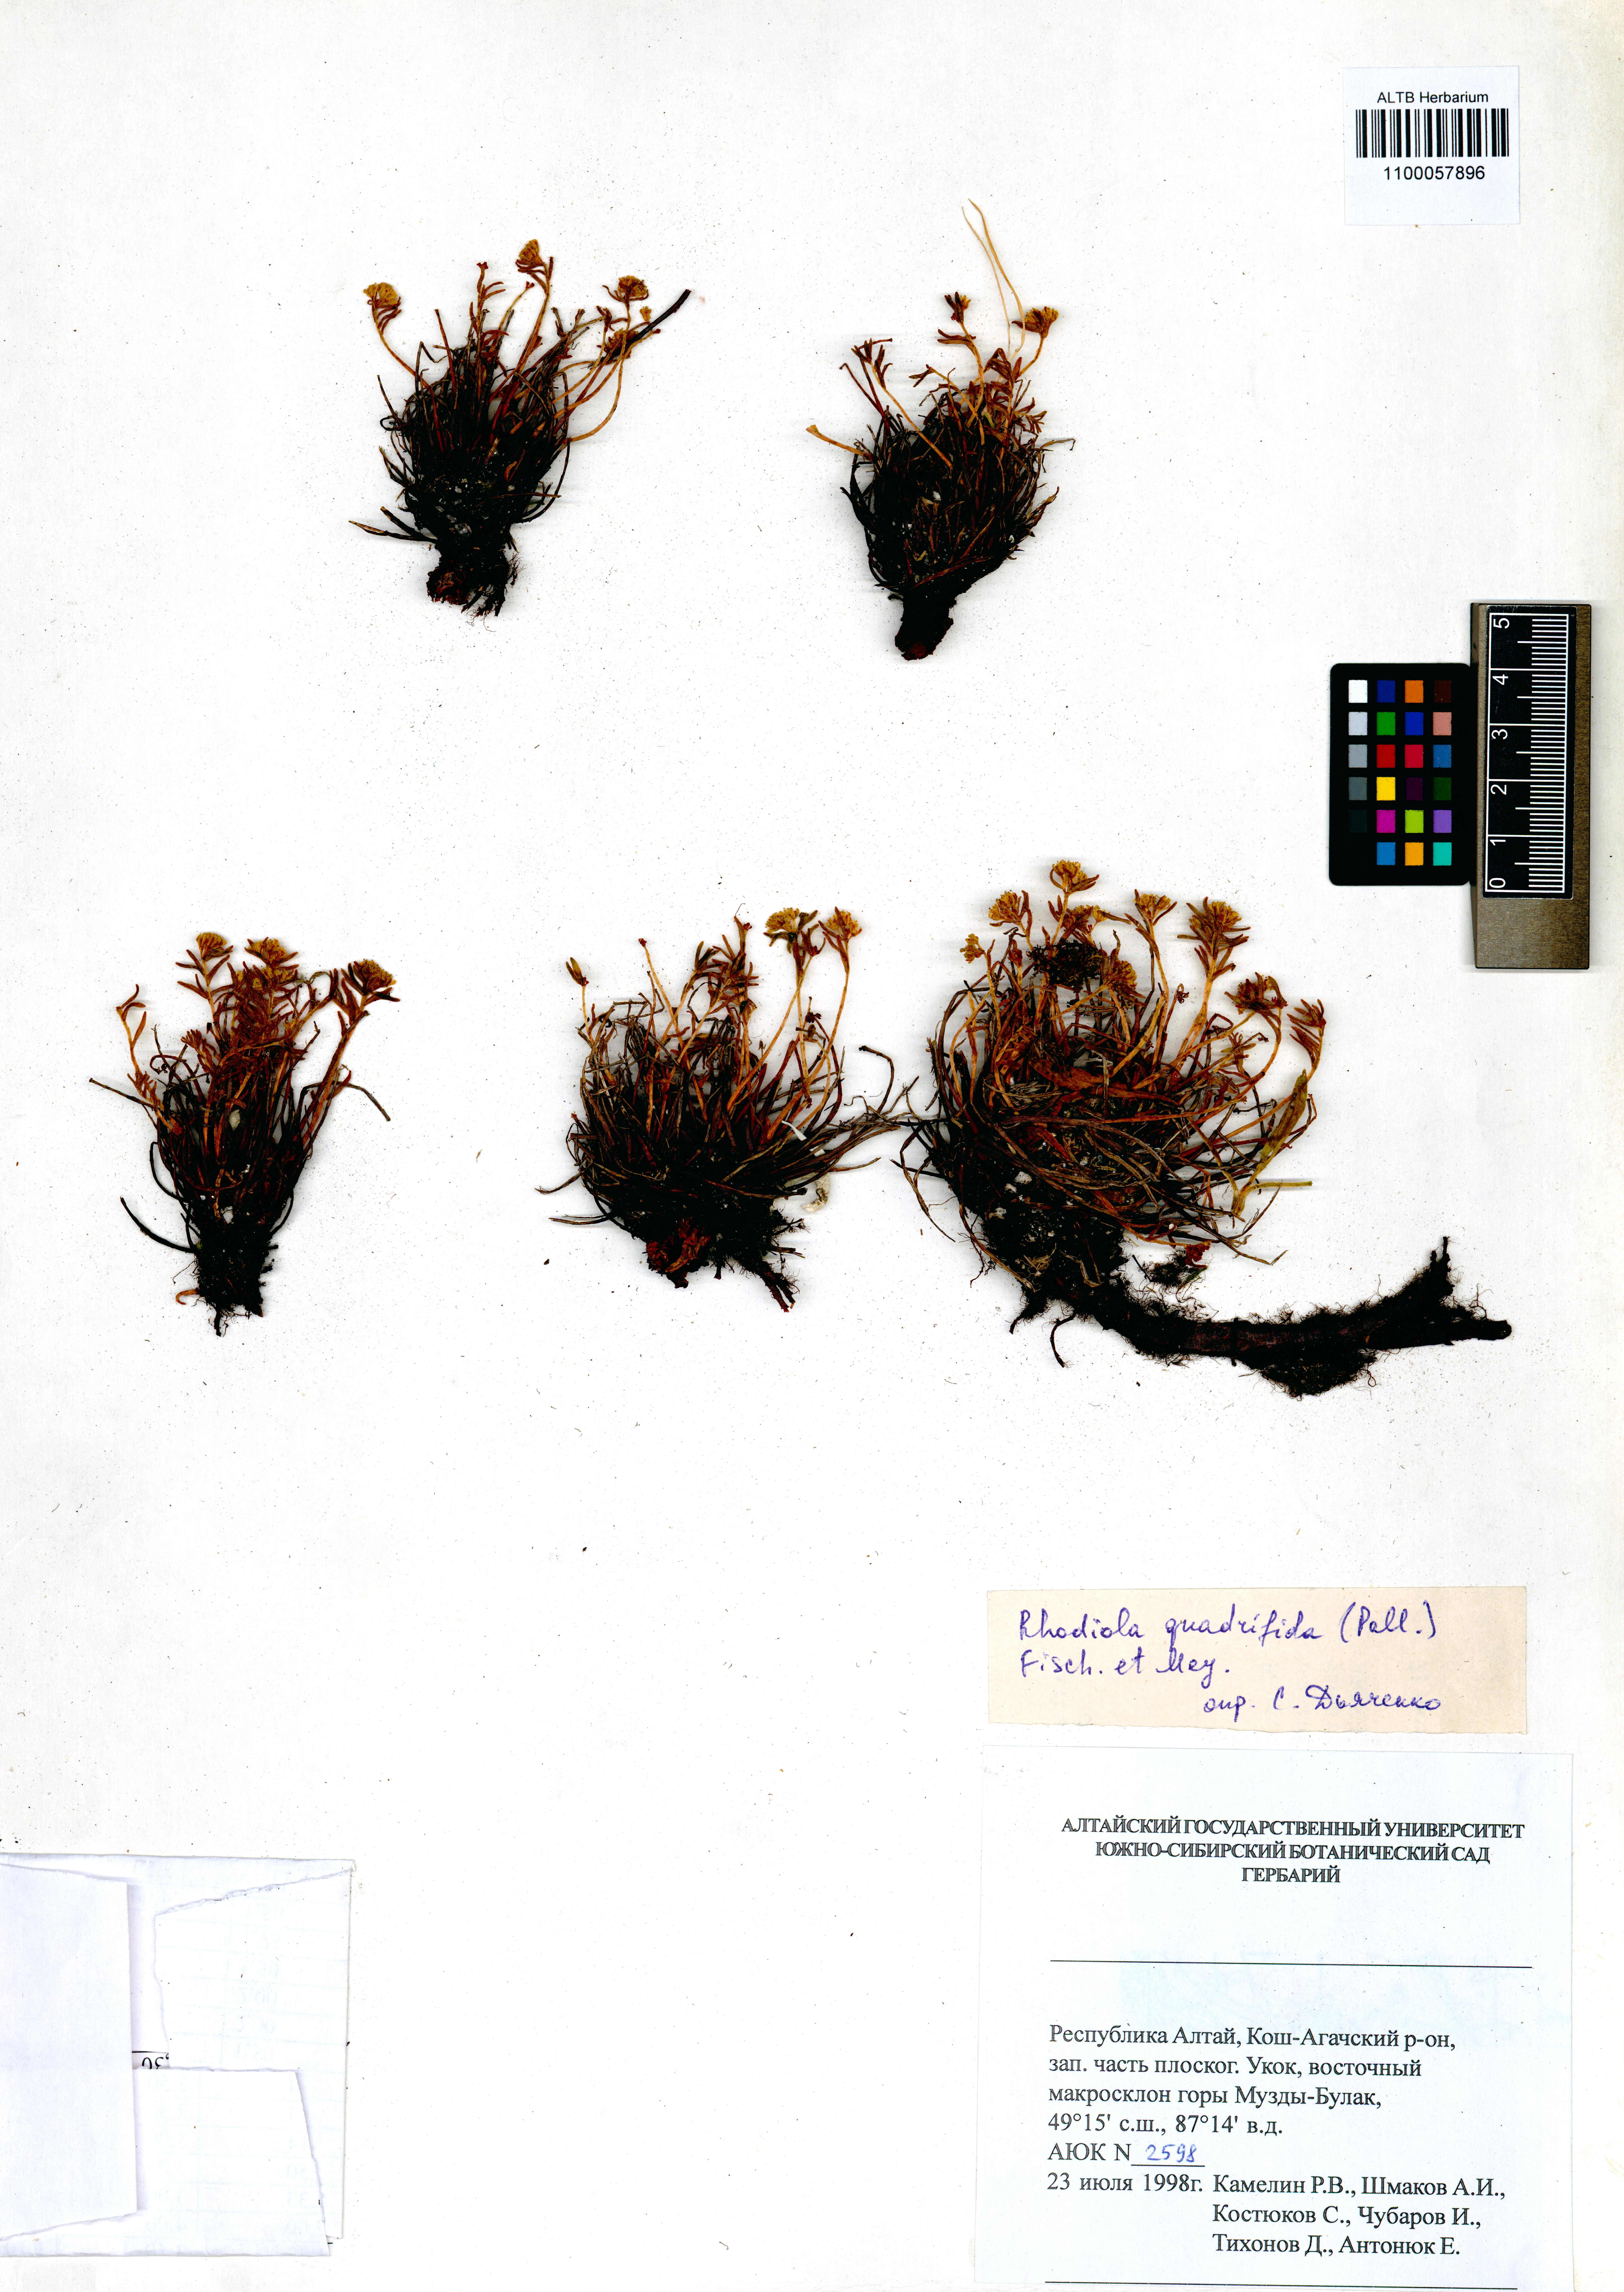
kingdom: Plantae
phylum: Tracheophyta
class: Magnoliopsida
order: Saxifragales
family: Crassulaceae
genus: Rhodiola
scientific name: Rhodiola quadrifida
